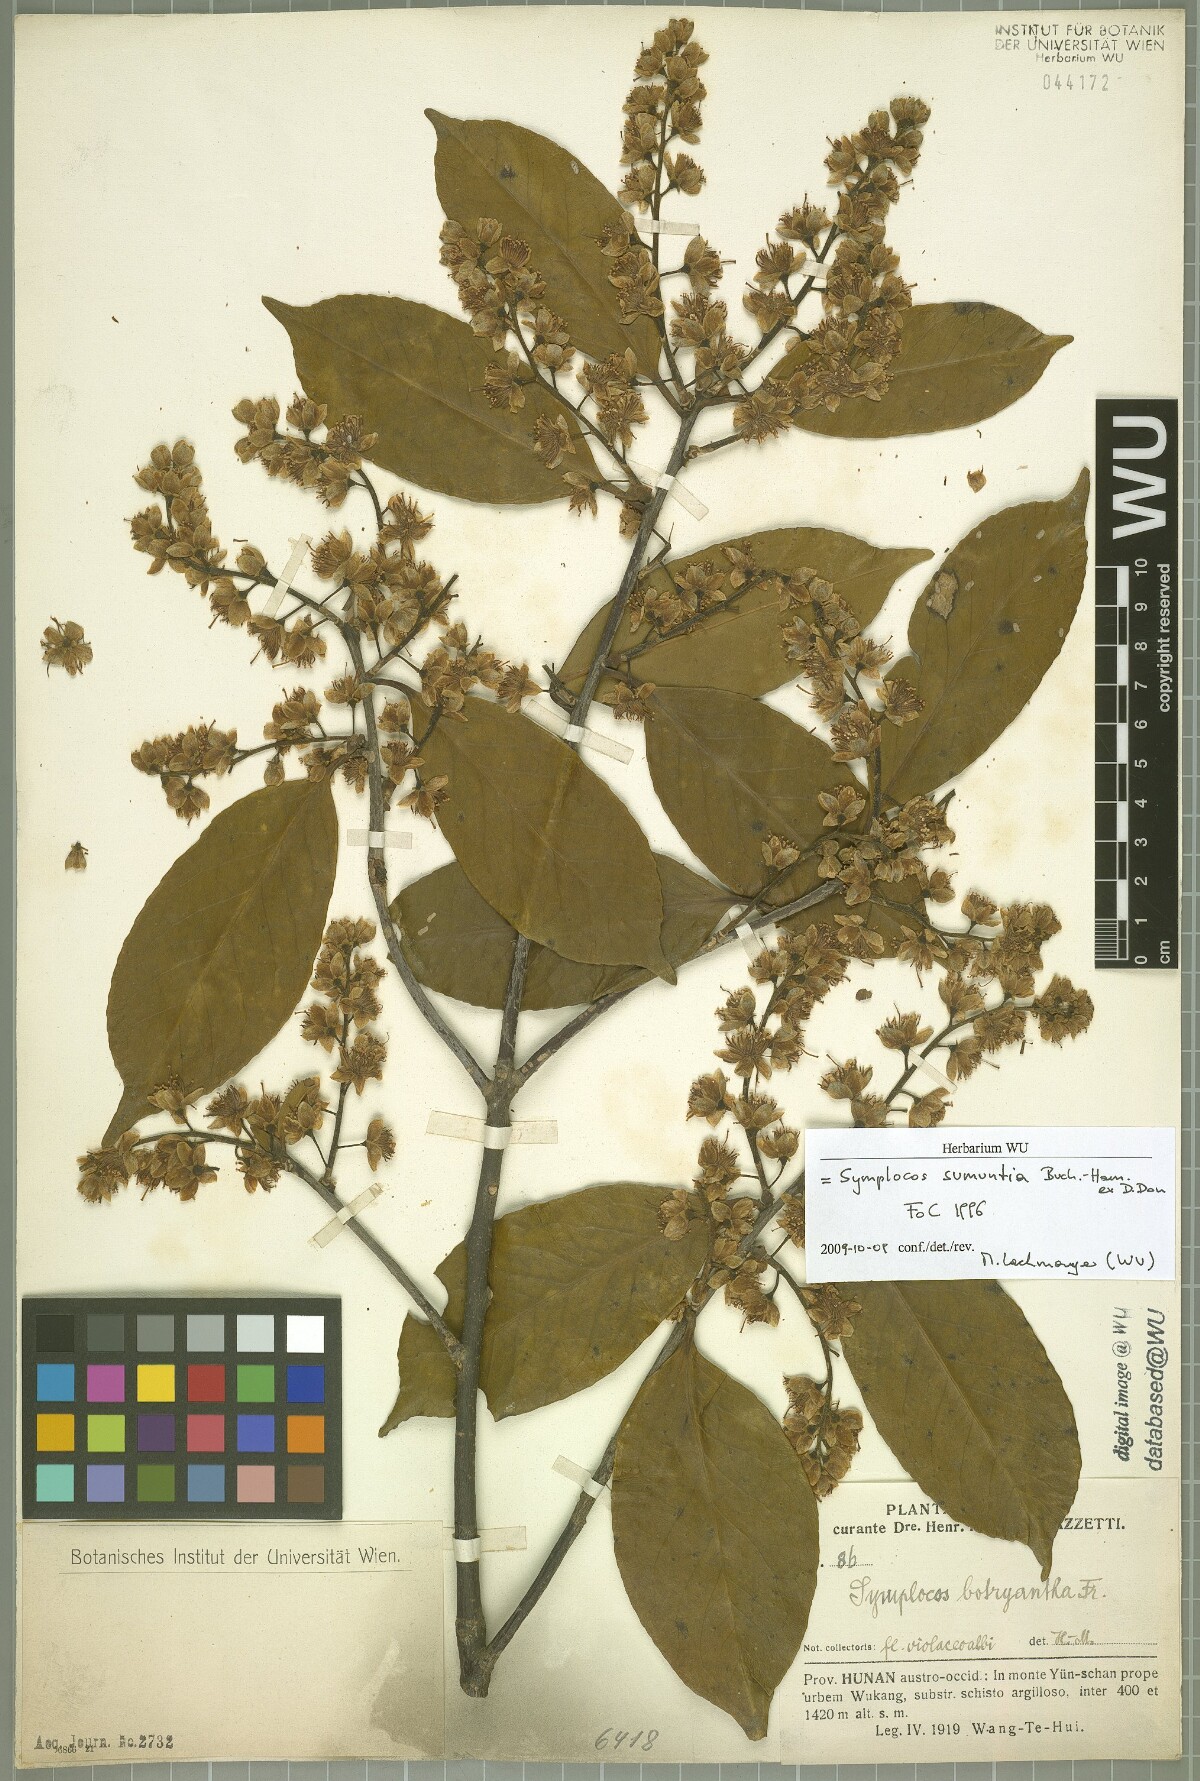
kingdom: Plantae
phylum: Tracheophyta
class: Magnoliopsida
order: Ericales
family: Symplocaceae
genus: Symplocos
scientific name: Symplocos sumuntia
